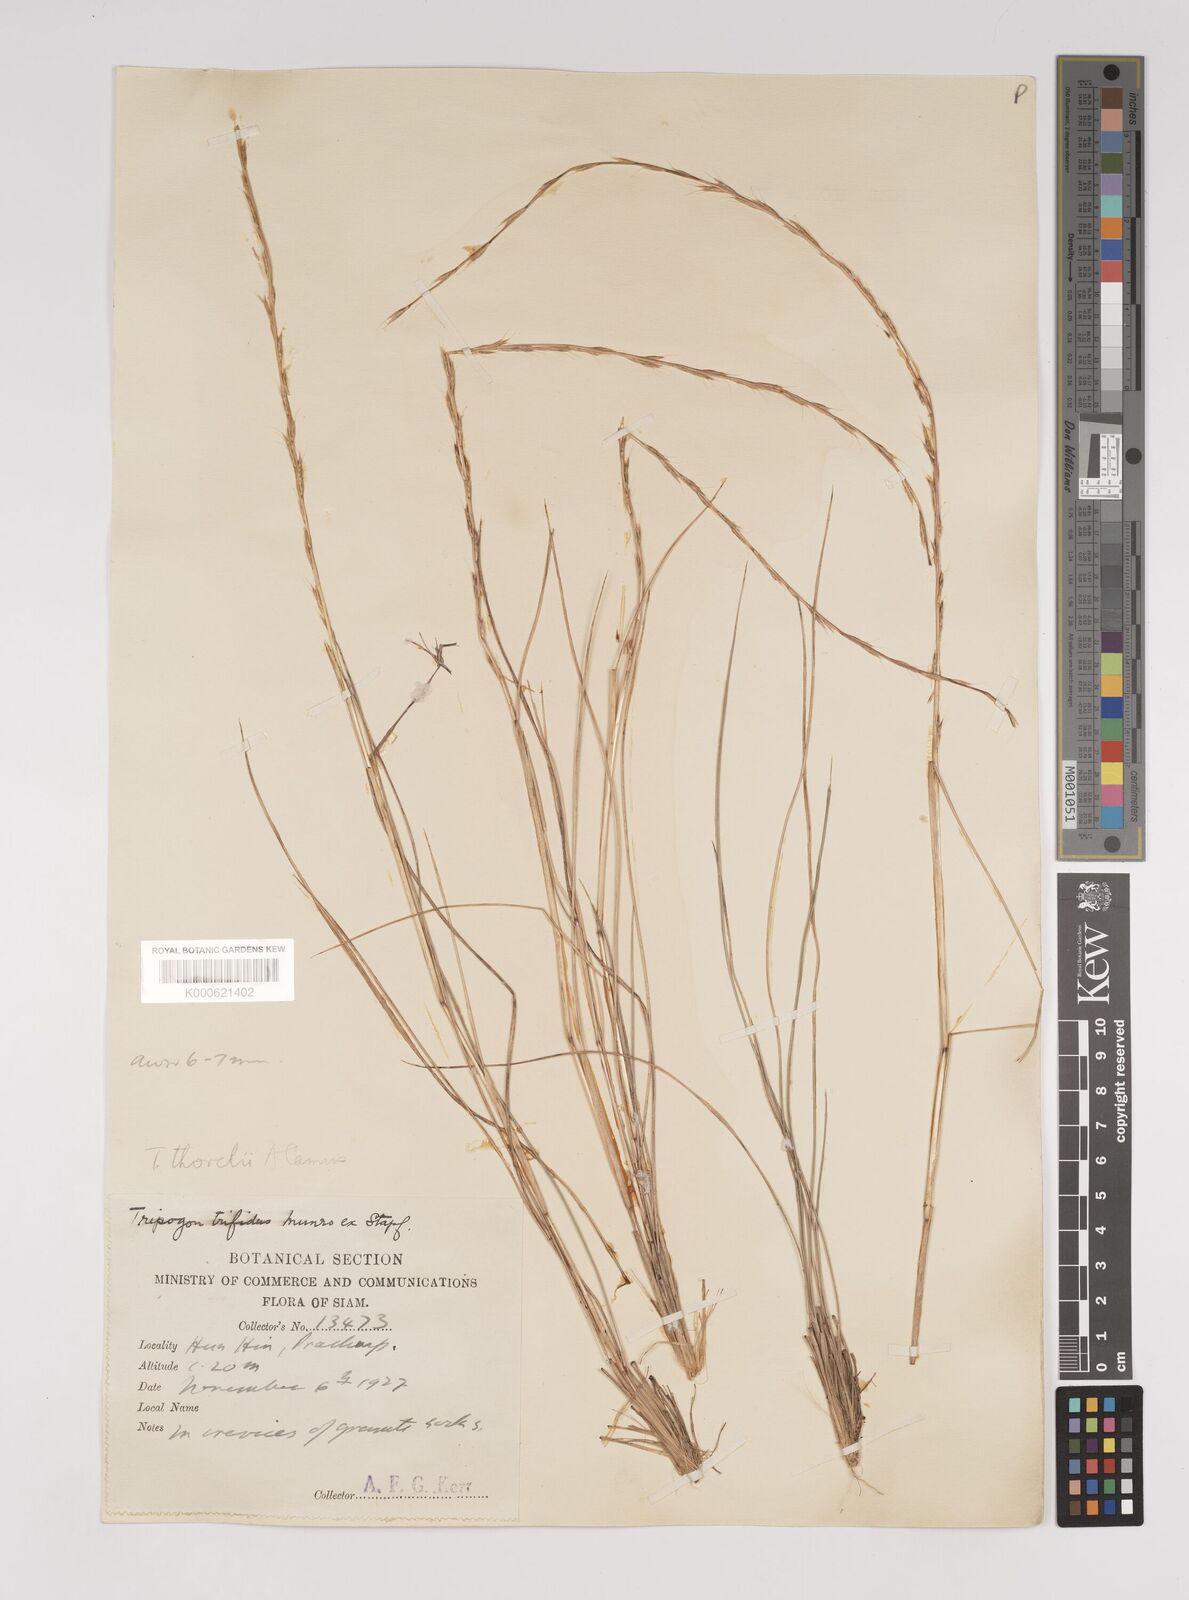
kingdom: Plantae
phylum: Tracheophyta
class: Liliopsida
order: Poales
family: Poaceae
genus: Tripogon
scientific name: Tripogon
